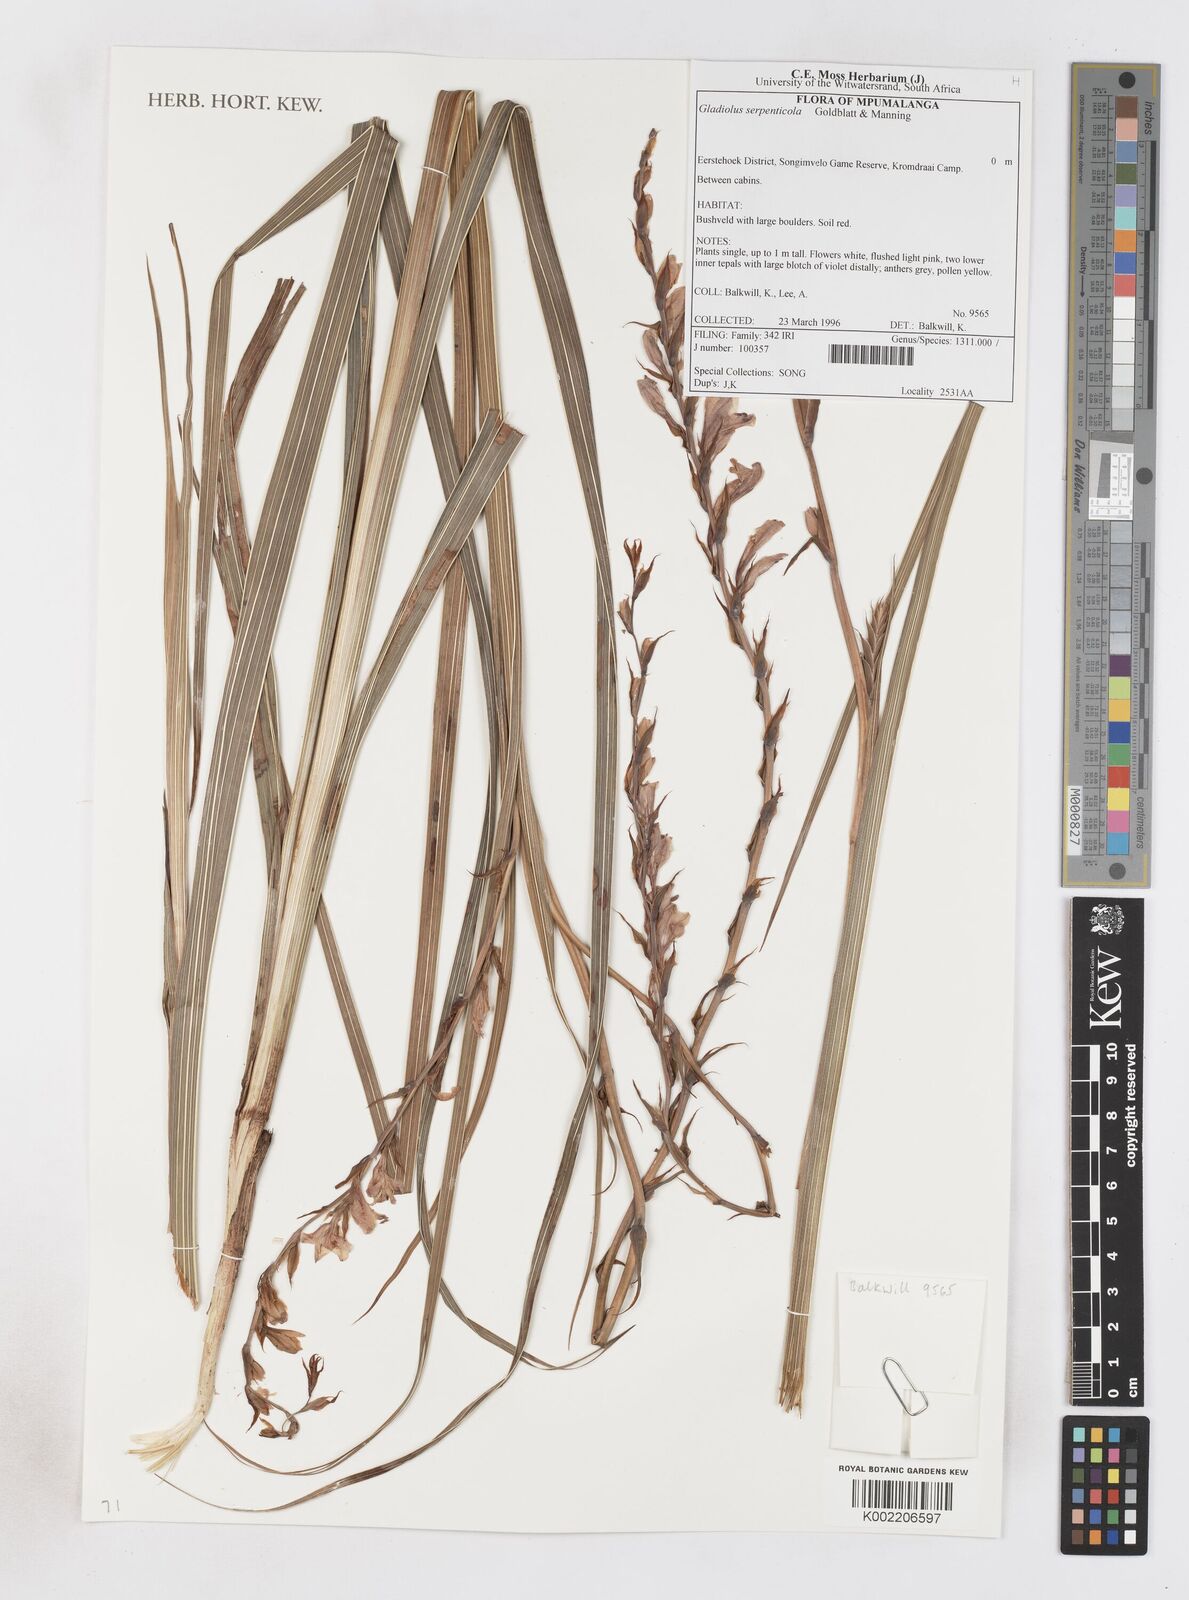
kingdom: Plantae
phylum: Tracheophyta
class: Liliopsida
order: Asparagales
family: Iridaceae
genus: Gladiolus
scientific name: Gladiolus serpenticola
